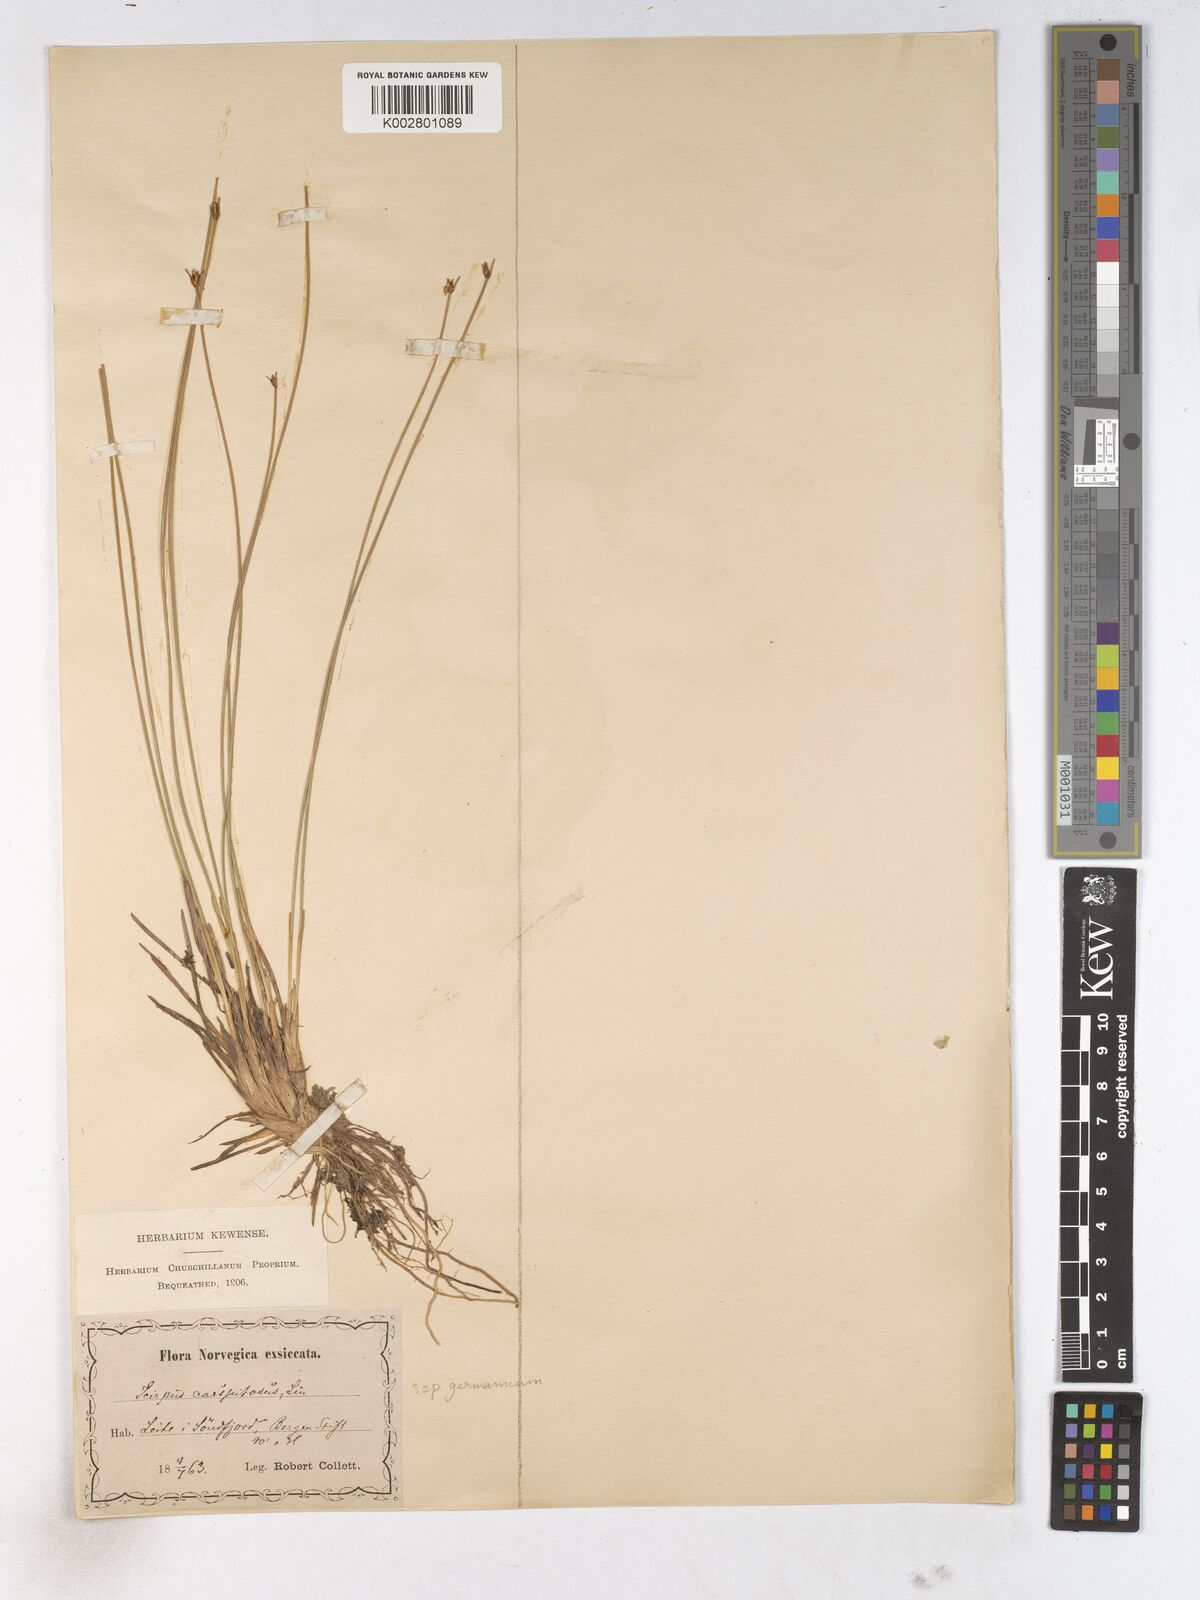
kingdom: Plantae
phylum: Tracheophyta
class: Liliopsida
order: Poales
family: Cyperaceae
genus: Trichophorum
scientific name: Trichophorum cespitosum
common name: Cespitose bulrush
